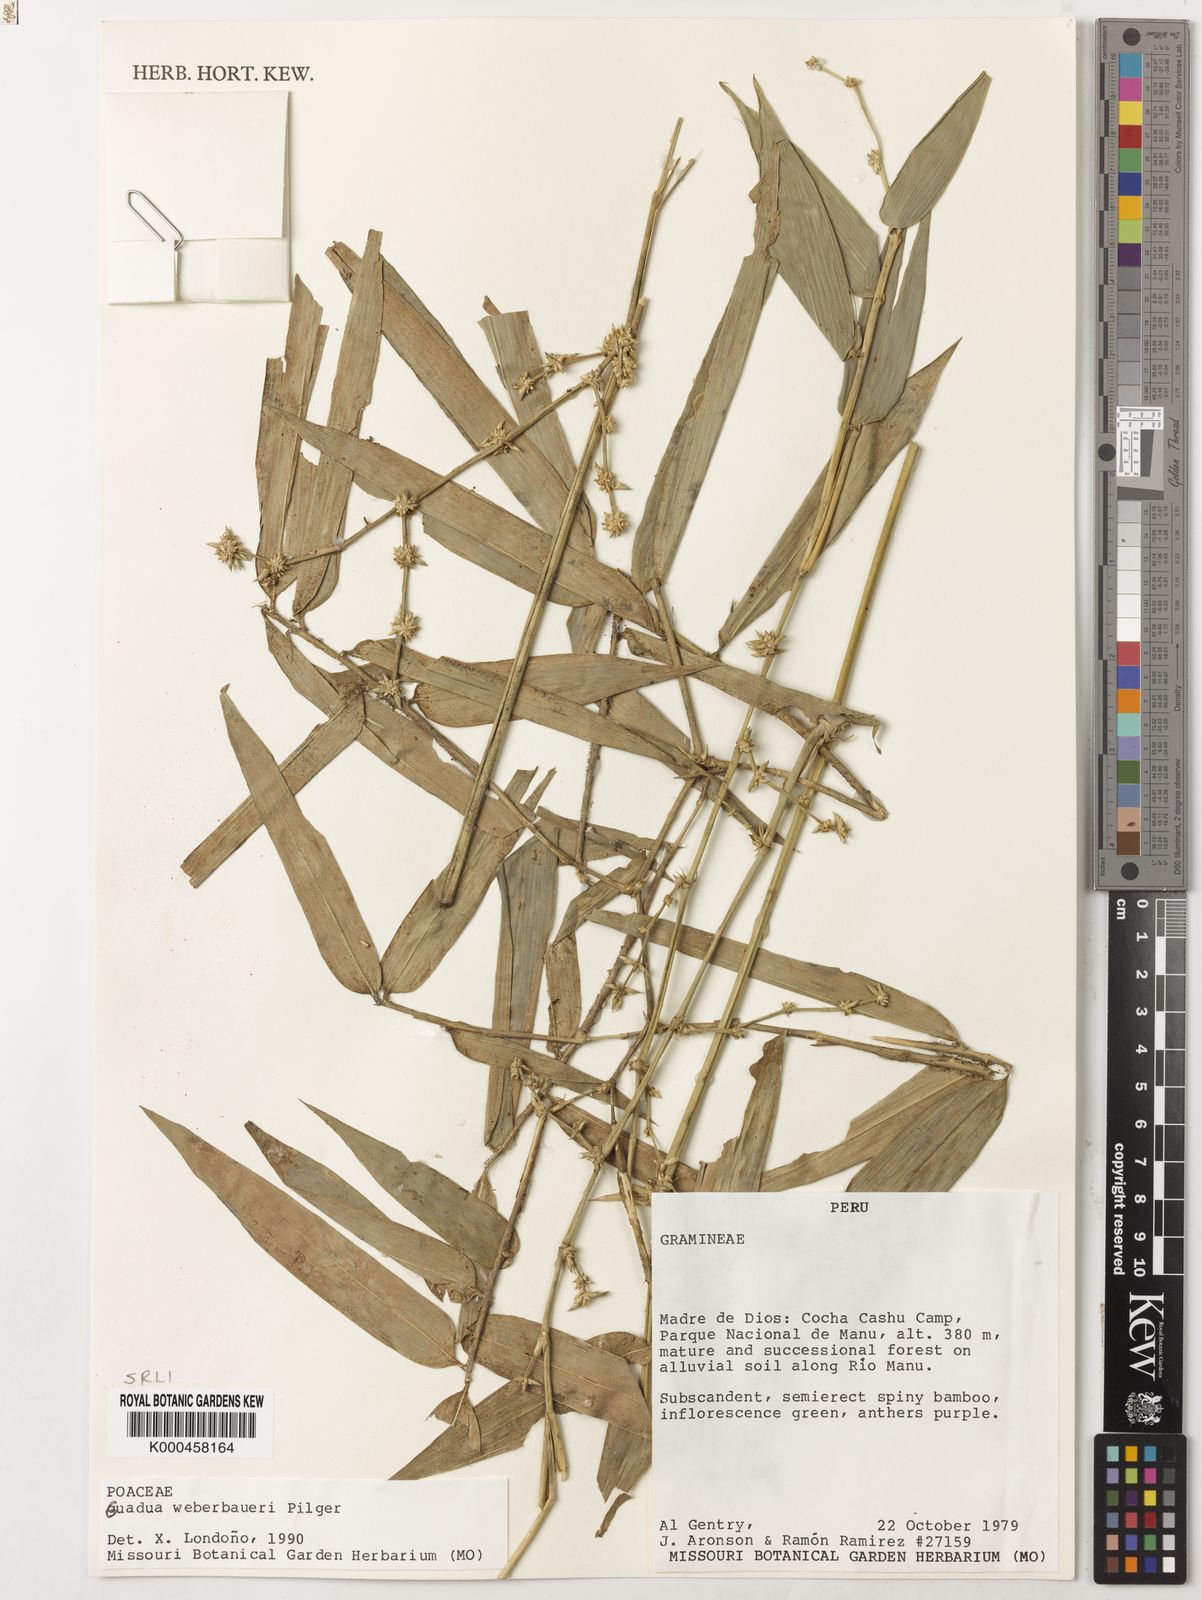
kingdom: Plantae
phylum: Tracheophyta
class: Liliopsida
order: Poales
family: Poaceae
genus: Guadua
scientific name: Guadua weberbaueri
